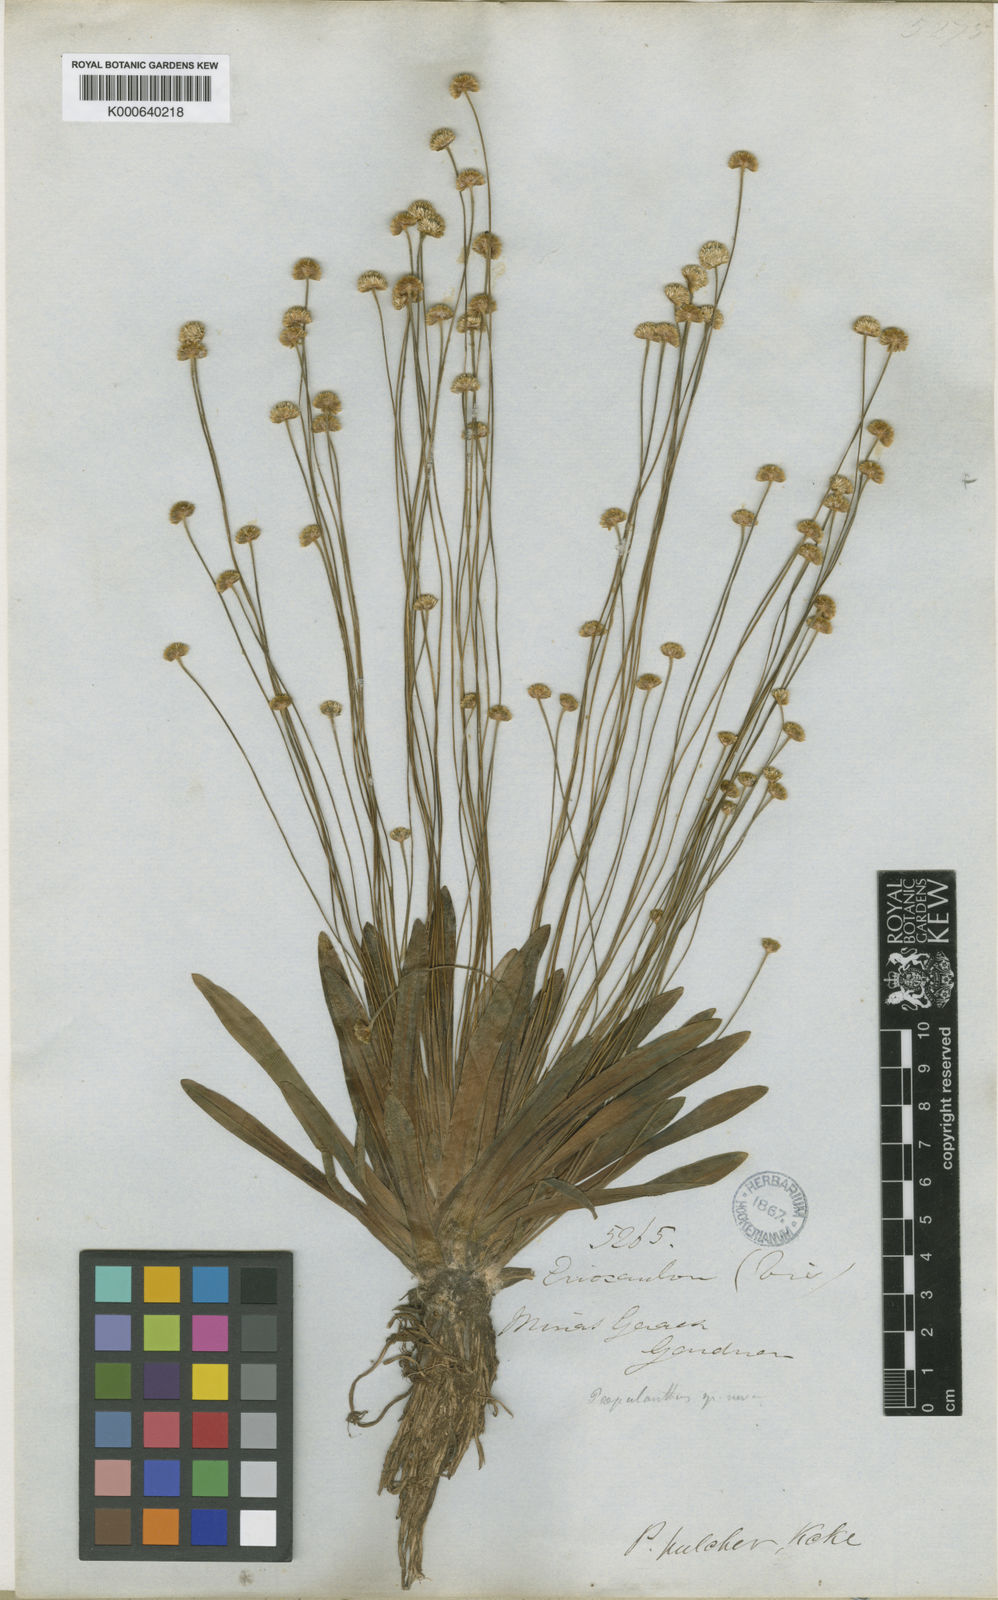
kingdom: Plantae
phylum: Tracheophyta
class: Liliopsida
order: Poales
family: Eriocaulaceae
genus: Syngonanthus
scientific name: Syngonanthus
